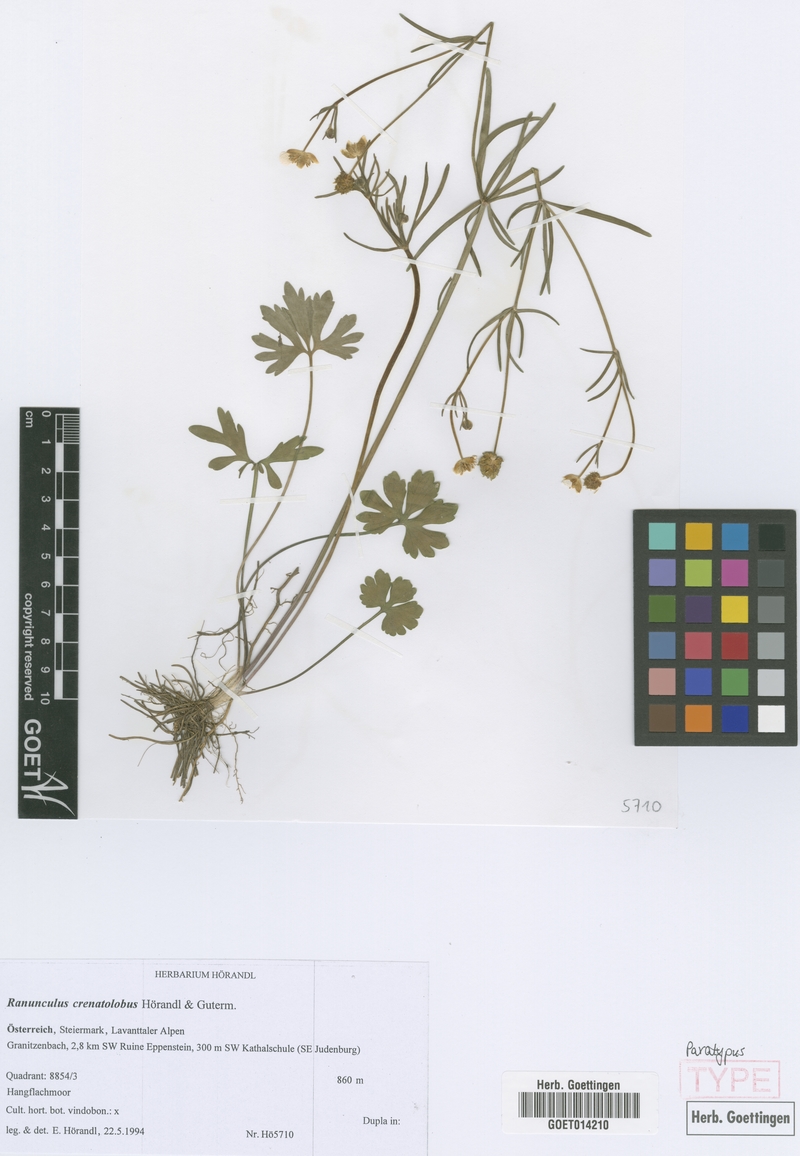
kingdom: Plantae
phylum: Tracheophyta
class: Magnoliopsida
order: Ranunculales
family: Ranunculaceae
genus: Ranunculus
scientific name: Ranunculus crenatolobus
